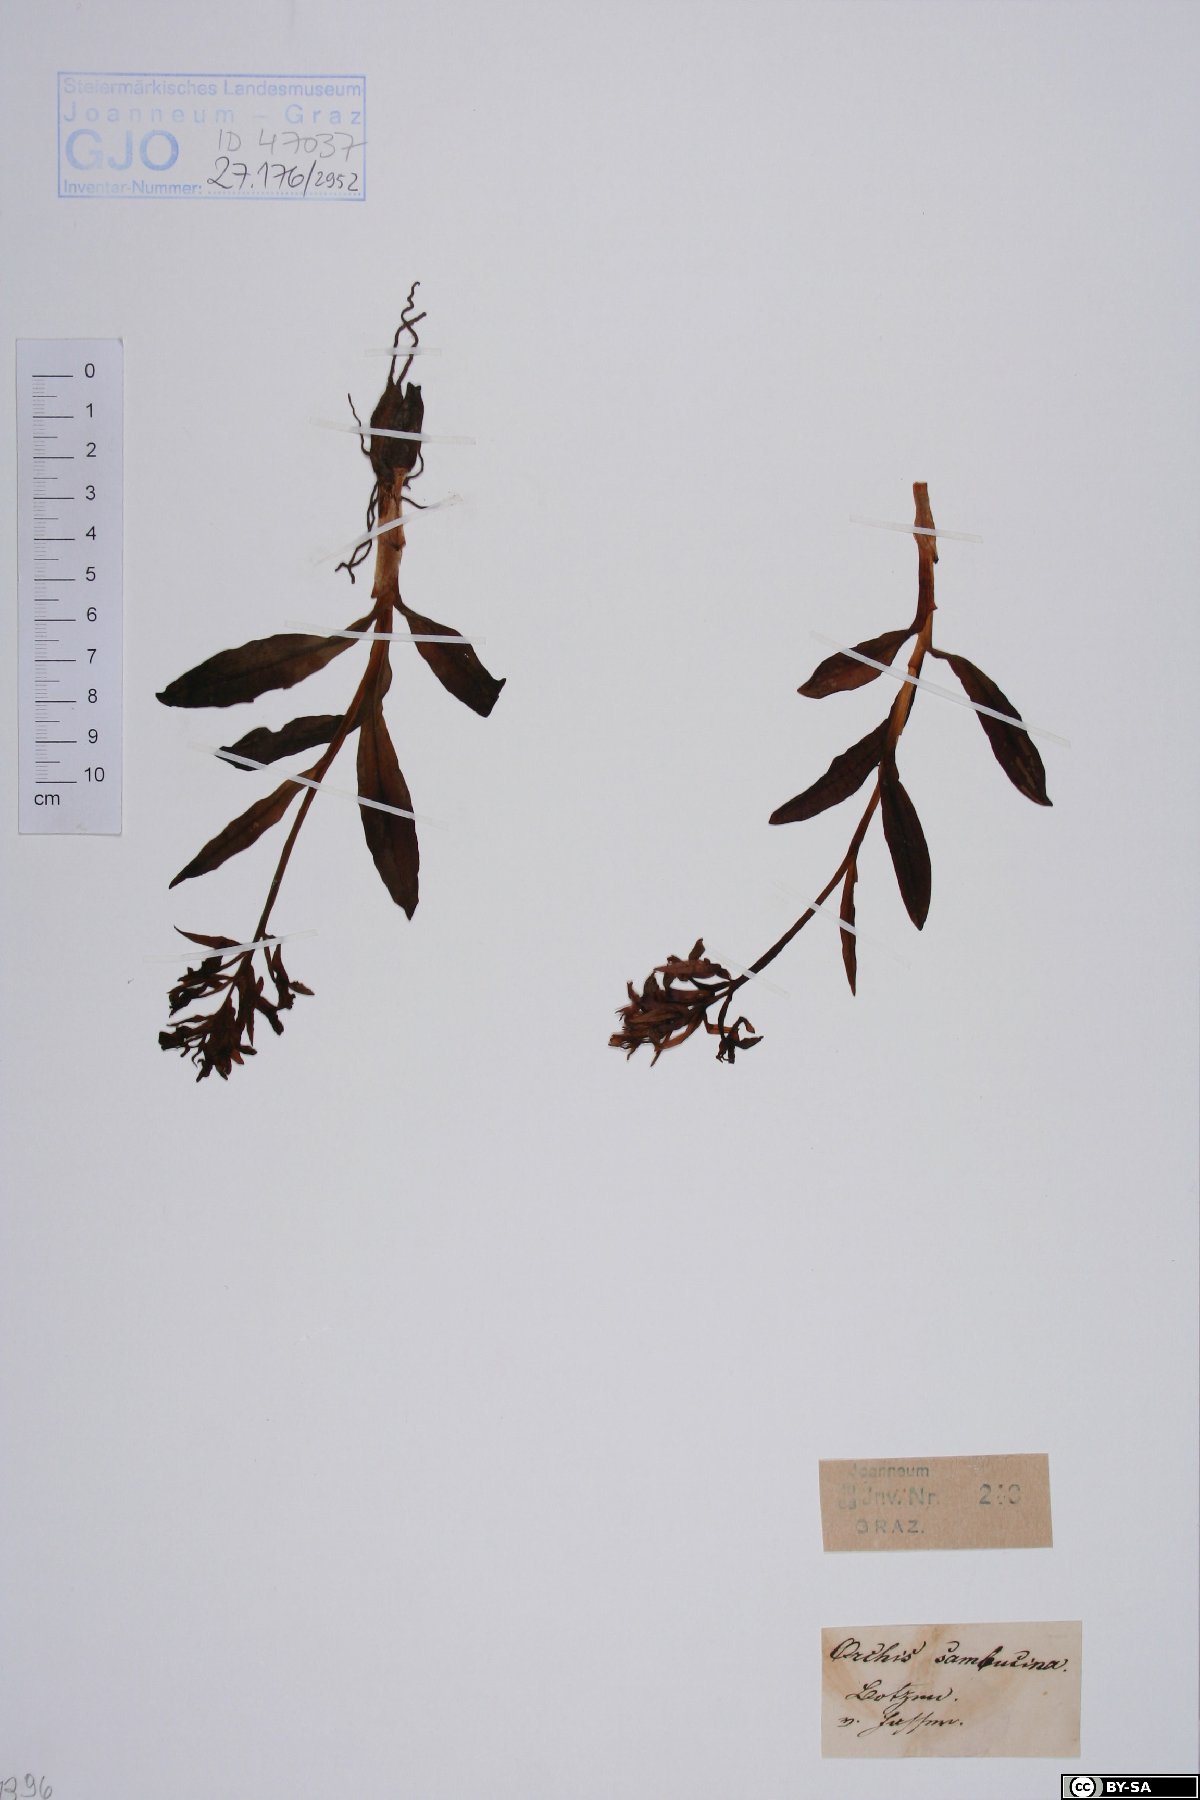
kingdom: Plantae
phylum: Tracheophyta
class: Liliopsida
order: Asparagales
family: Orchidaceae
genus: Dactylorhiza
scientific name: Dactylorhiza sambucina
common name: Elder-flowered orchid
